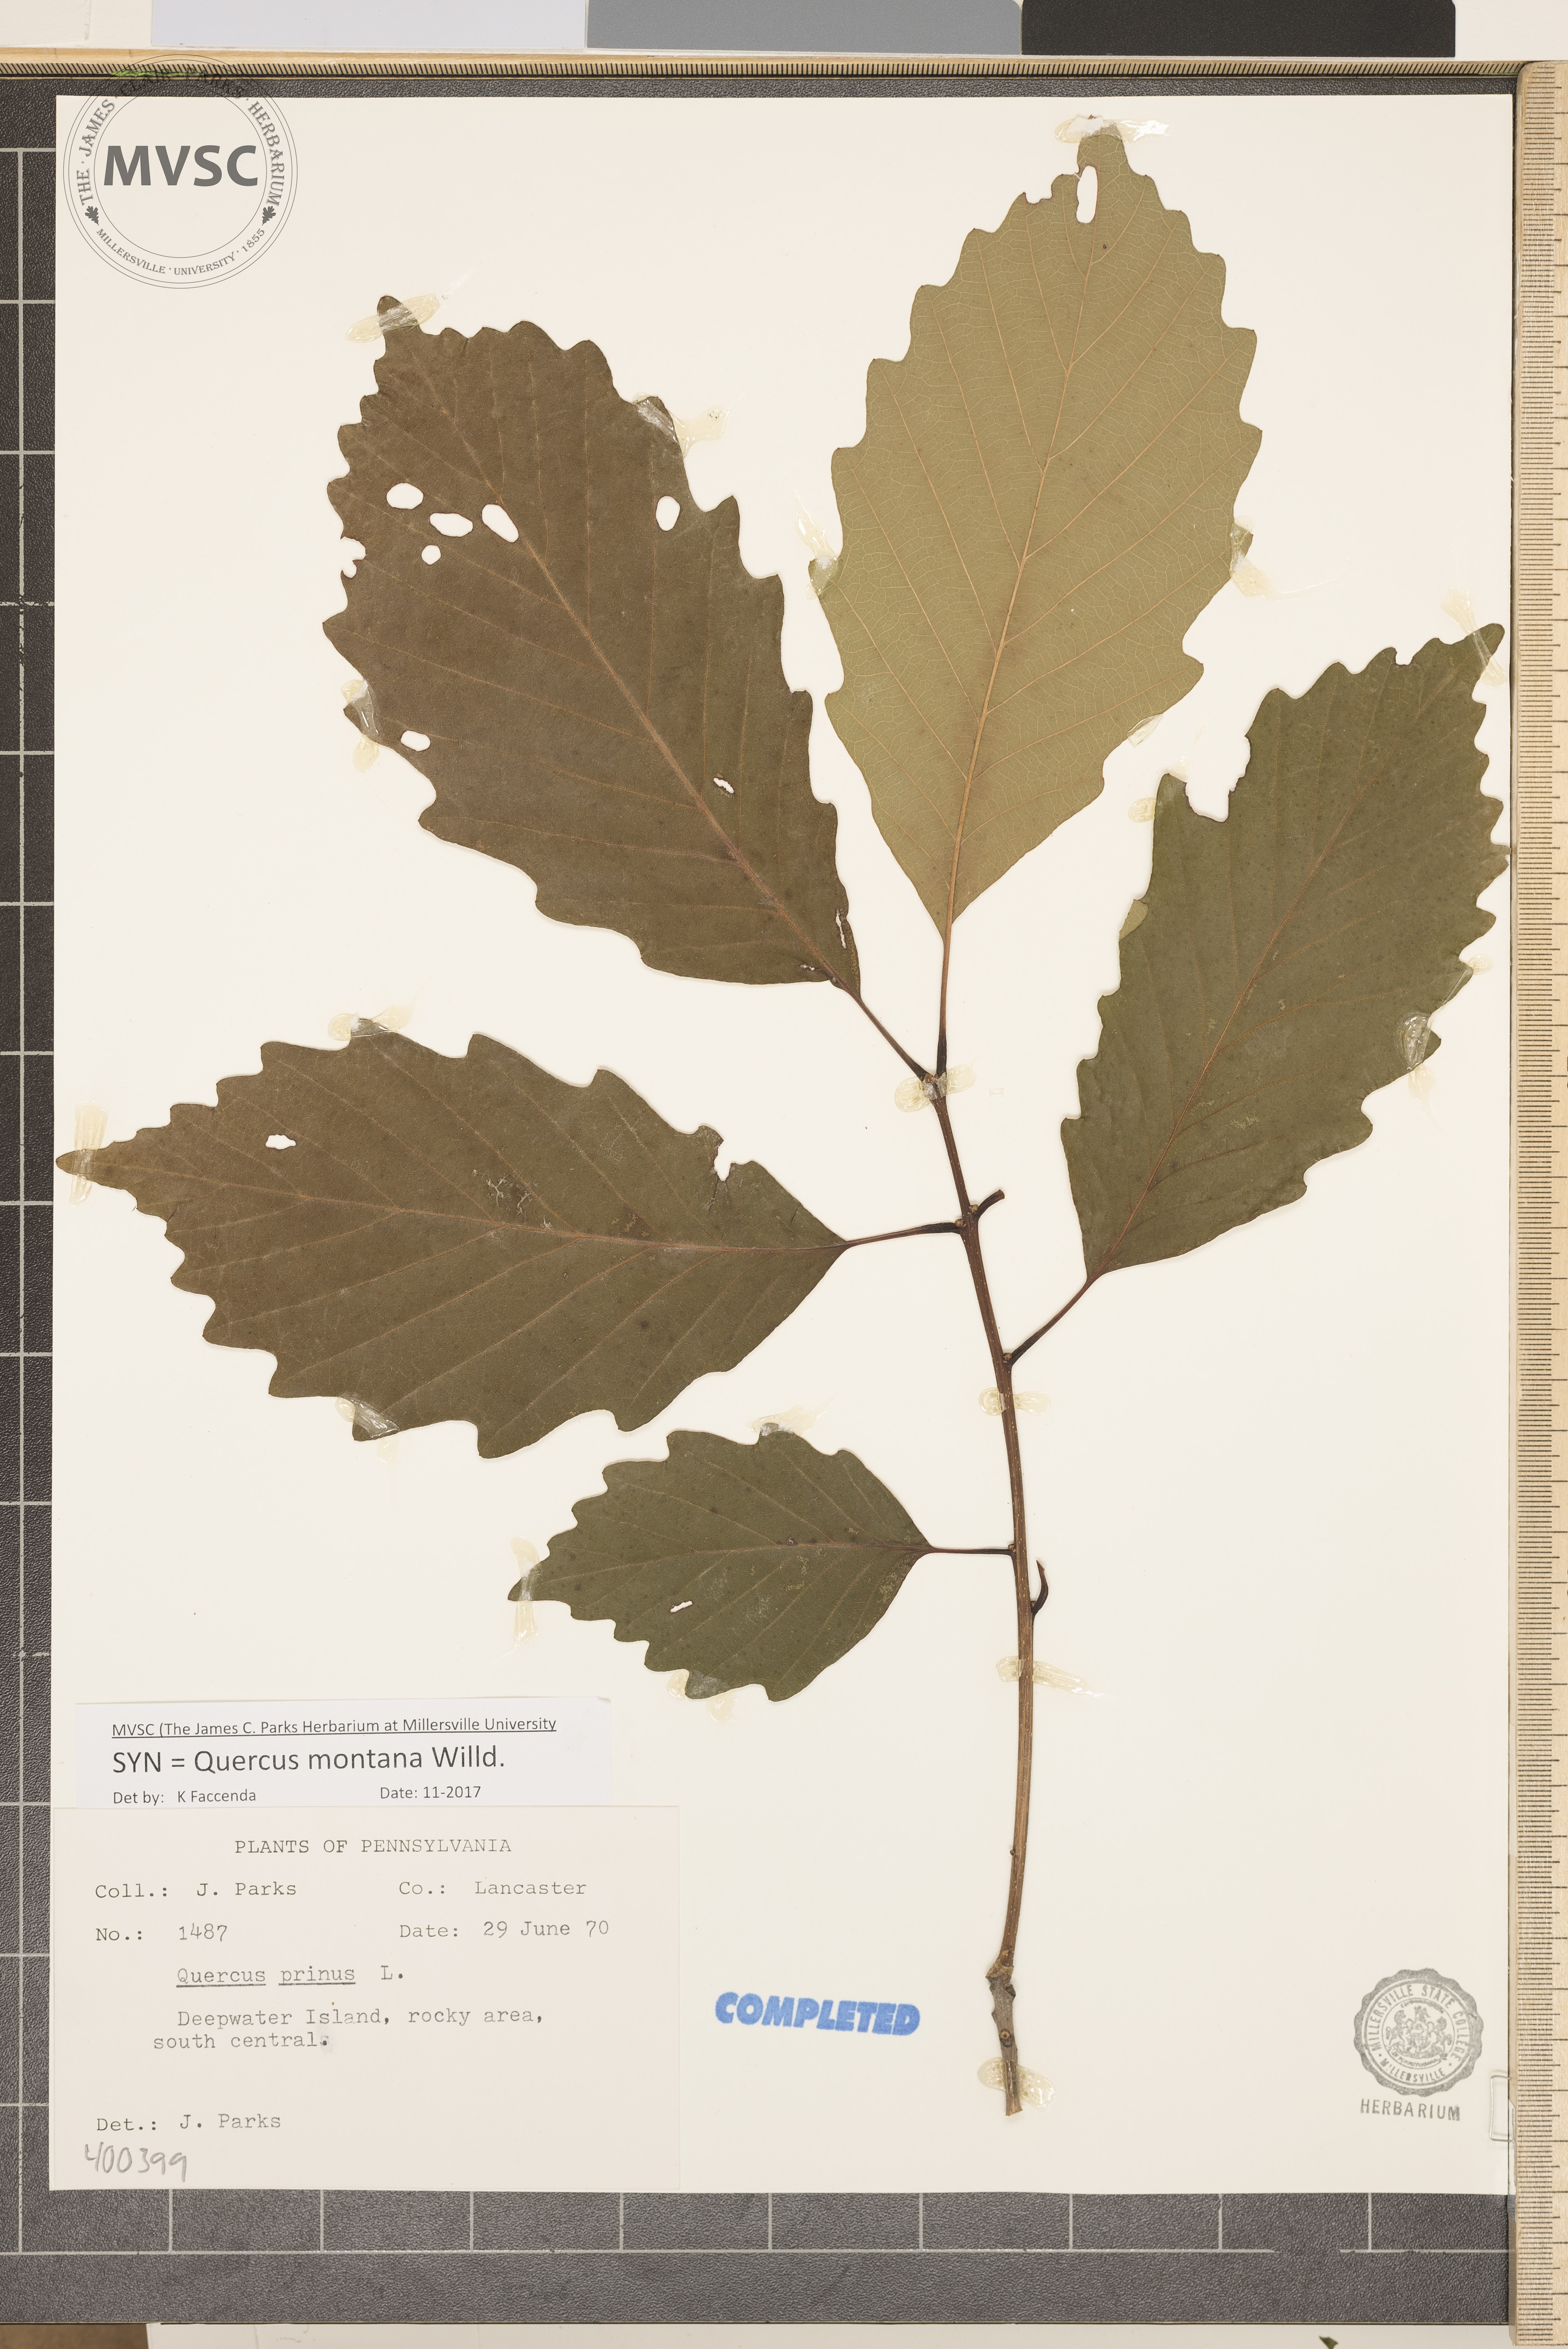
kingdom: Plantae
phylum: Tracheophyta
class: Magnoliopsida
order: Fagales
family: Fagaceae
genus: Quercus
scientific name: Quercus montana
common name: chestnut oak
